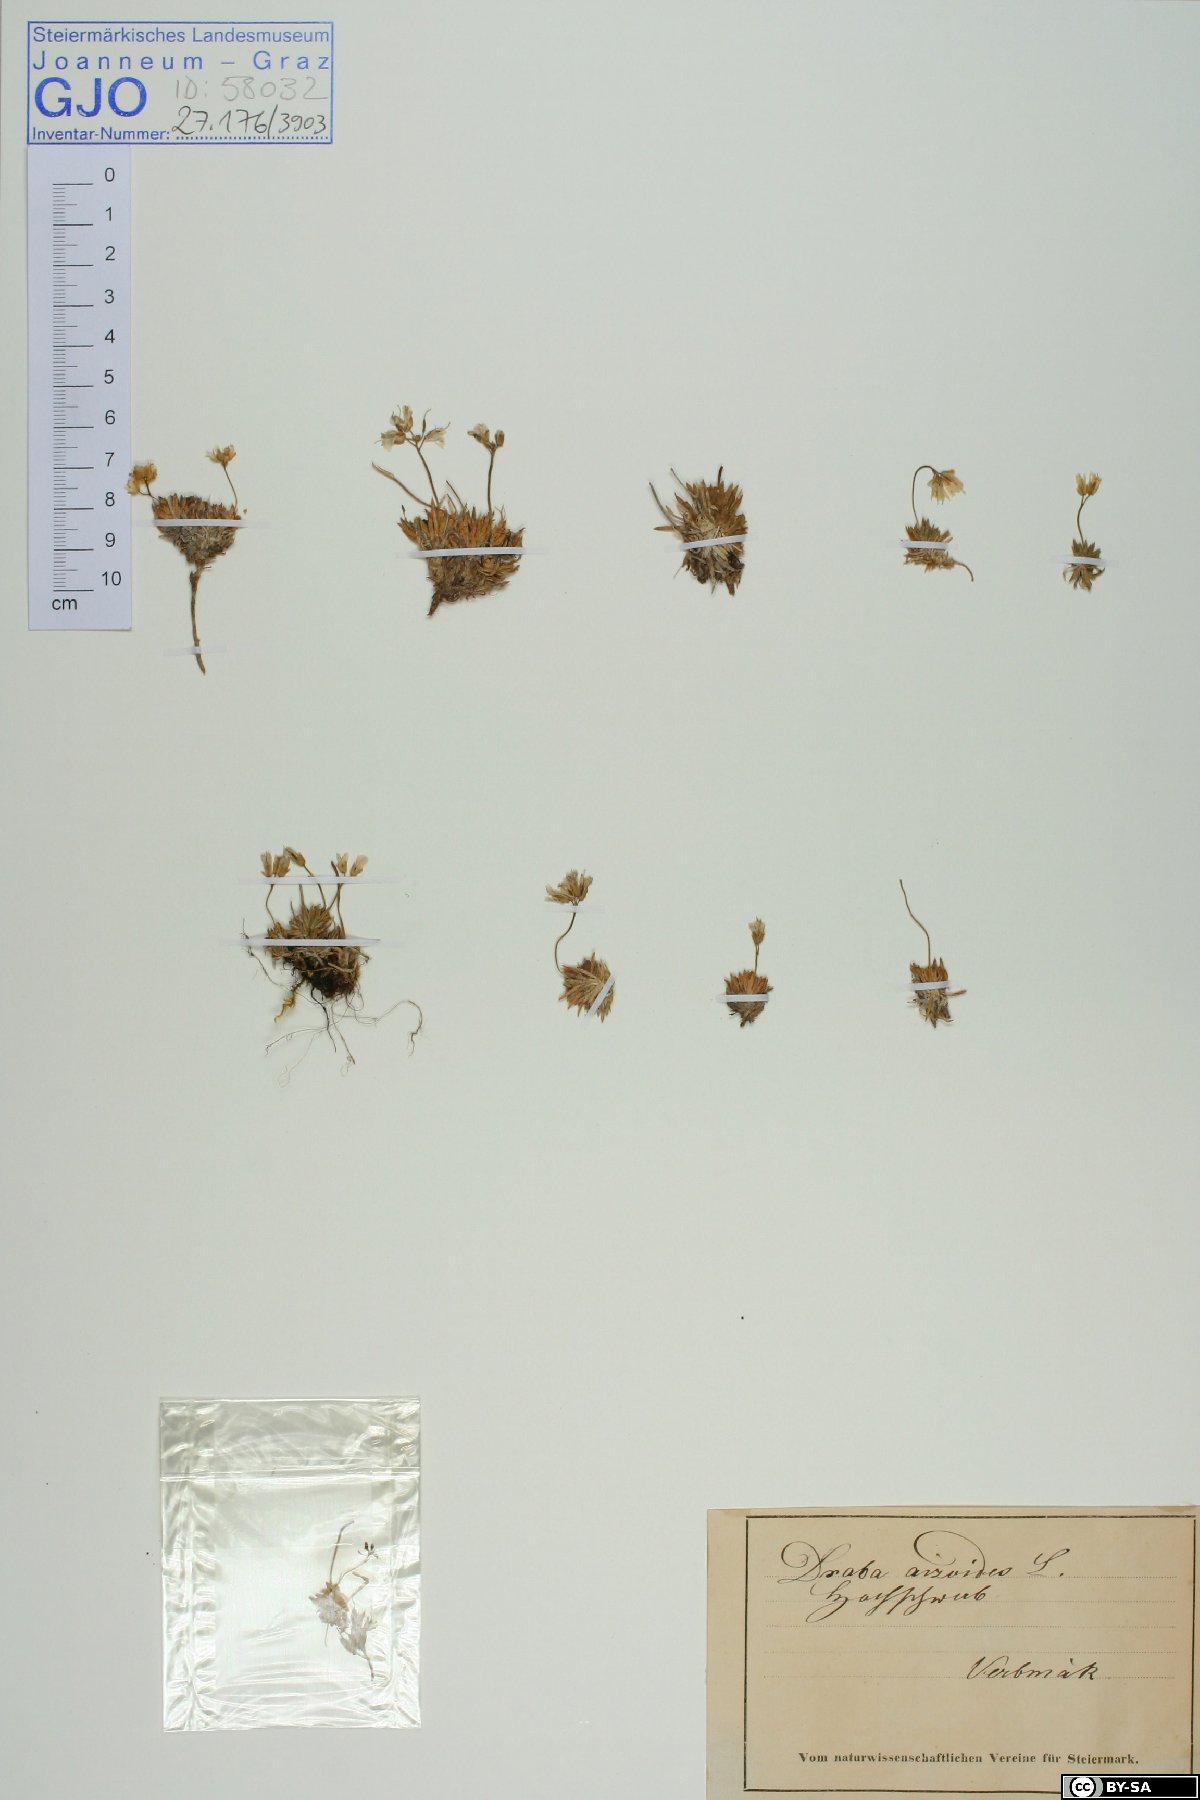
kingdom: Plantae
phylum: Tracheophyta
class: Magnoliopsida
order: Brassicales
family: Brassicaceae
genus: Draba
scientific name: Draba aizoides
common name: Yellow whitlowgrass
